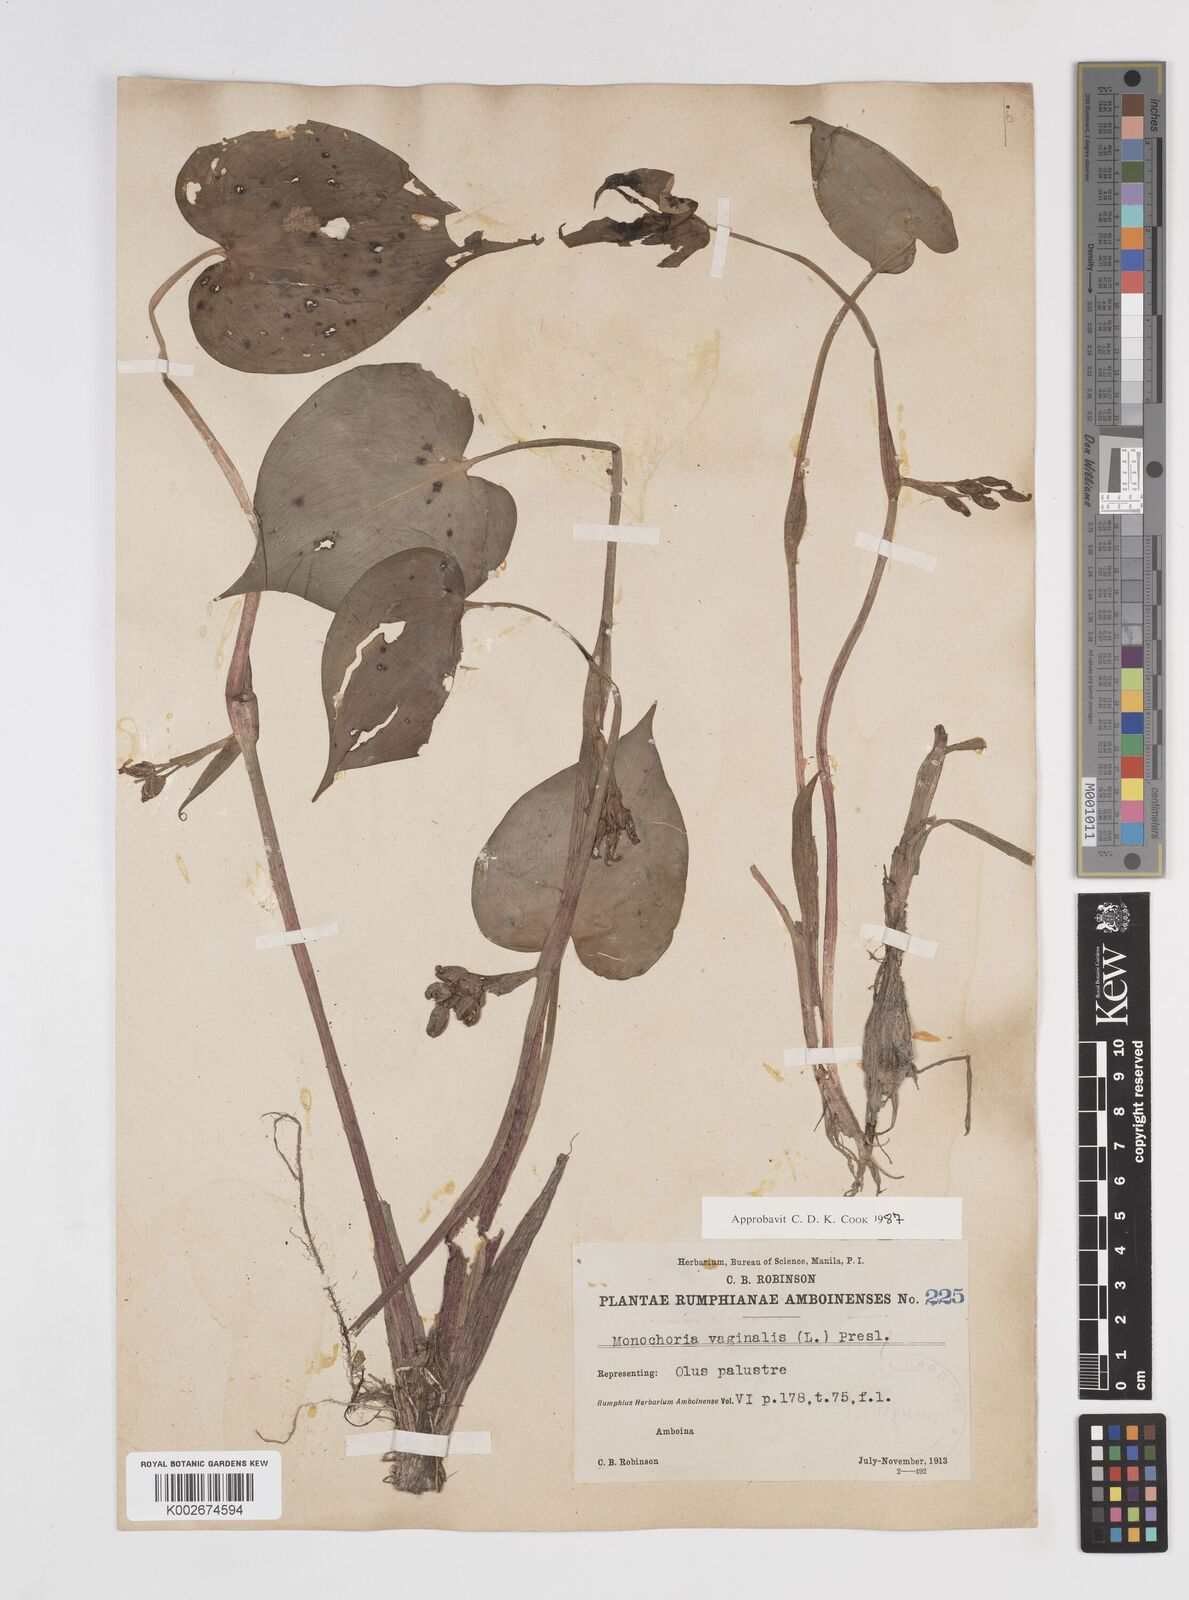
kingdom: Plantae
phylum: Tracheophyta
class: Liliopsida
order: Commelinales
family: Pontederiaceae
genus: Pontederia
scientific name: Pontederia vaginalis
